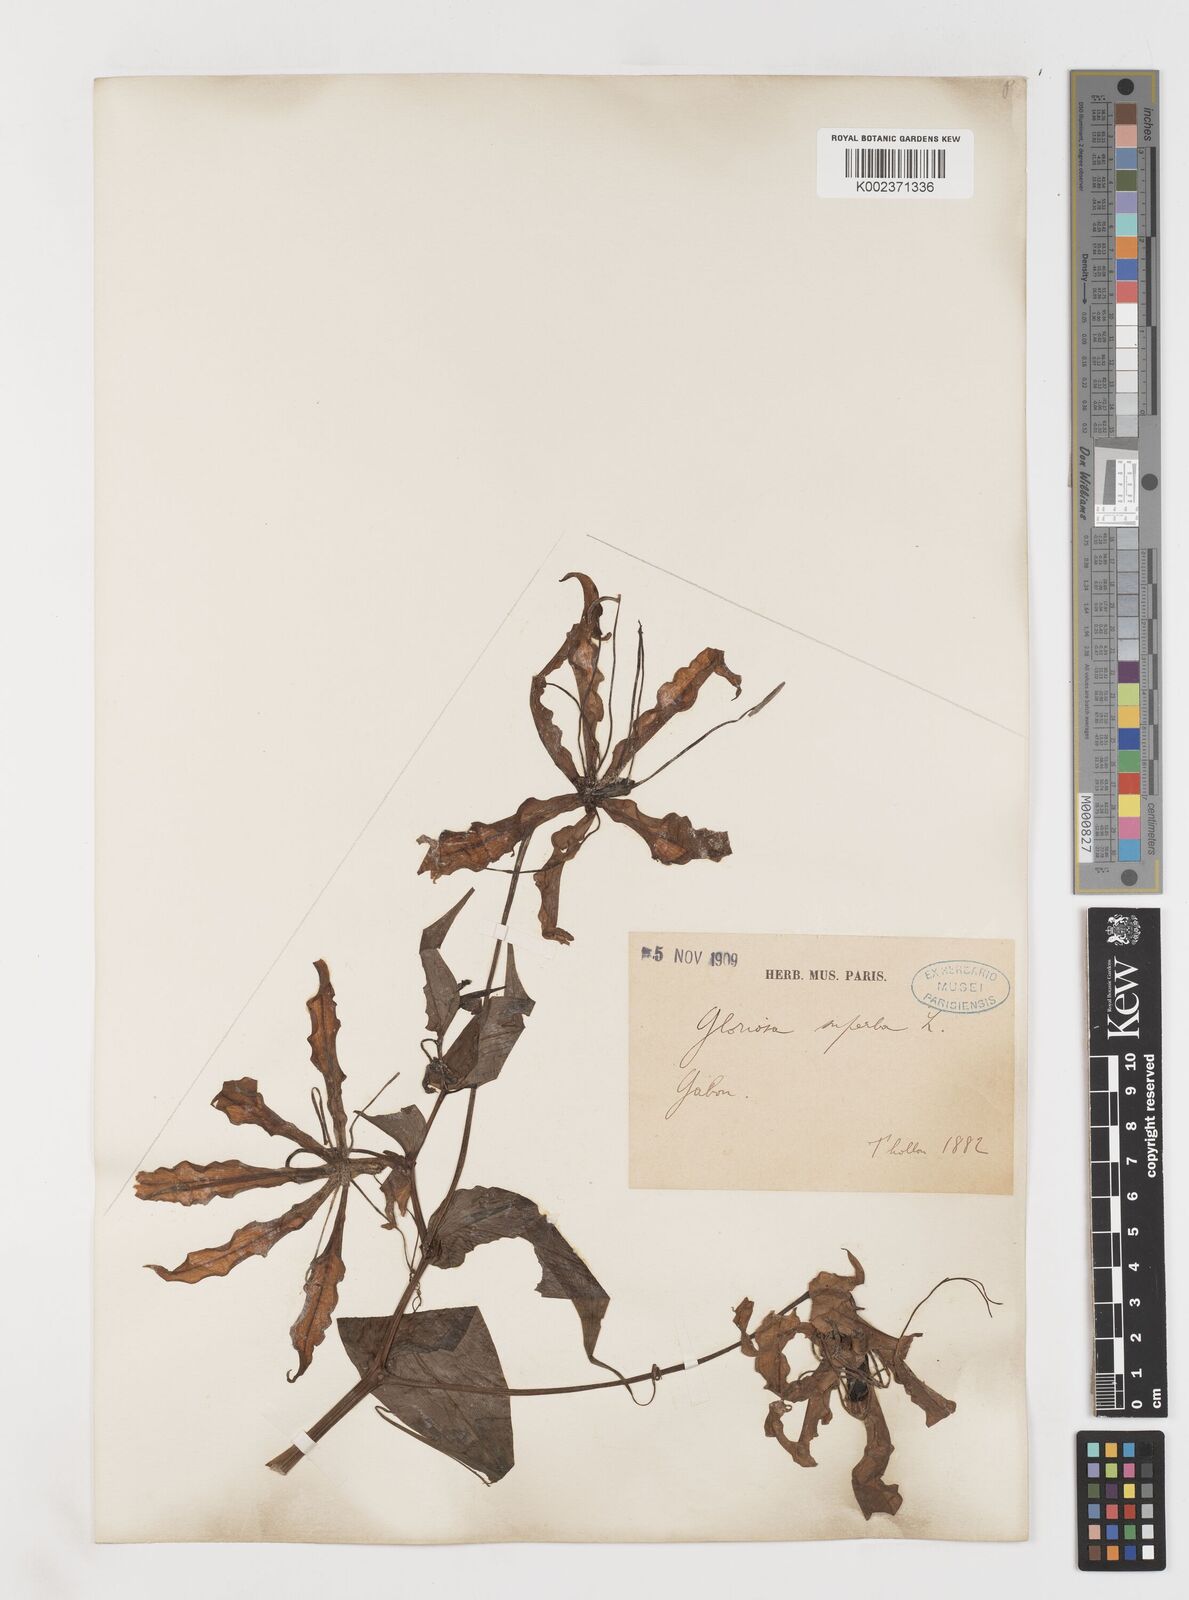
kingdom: Plantae
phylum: Tracheophyta
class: Liliopsida
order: Liliales
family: Colchicaceae
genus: Gloriosa
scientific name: Gloriosa superba
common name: Flame lily
